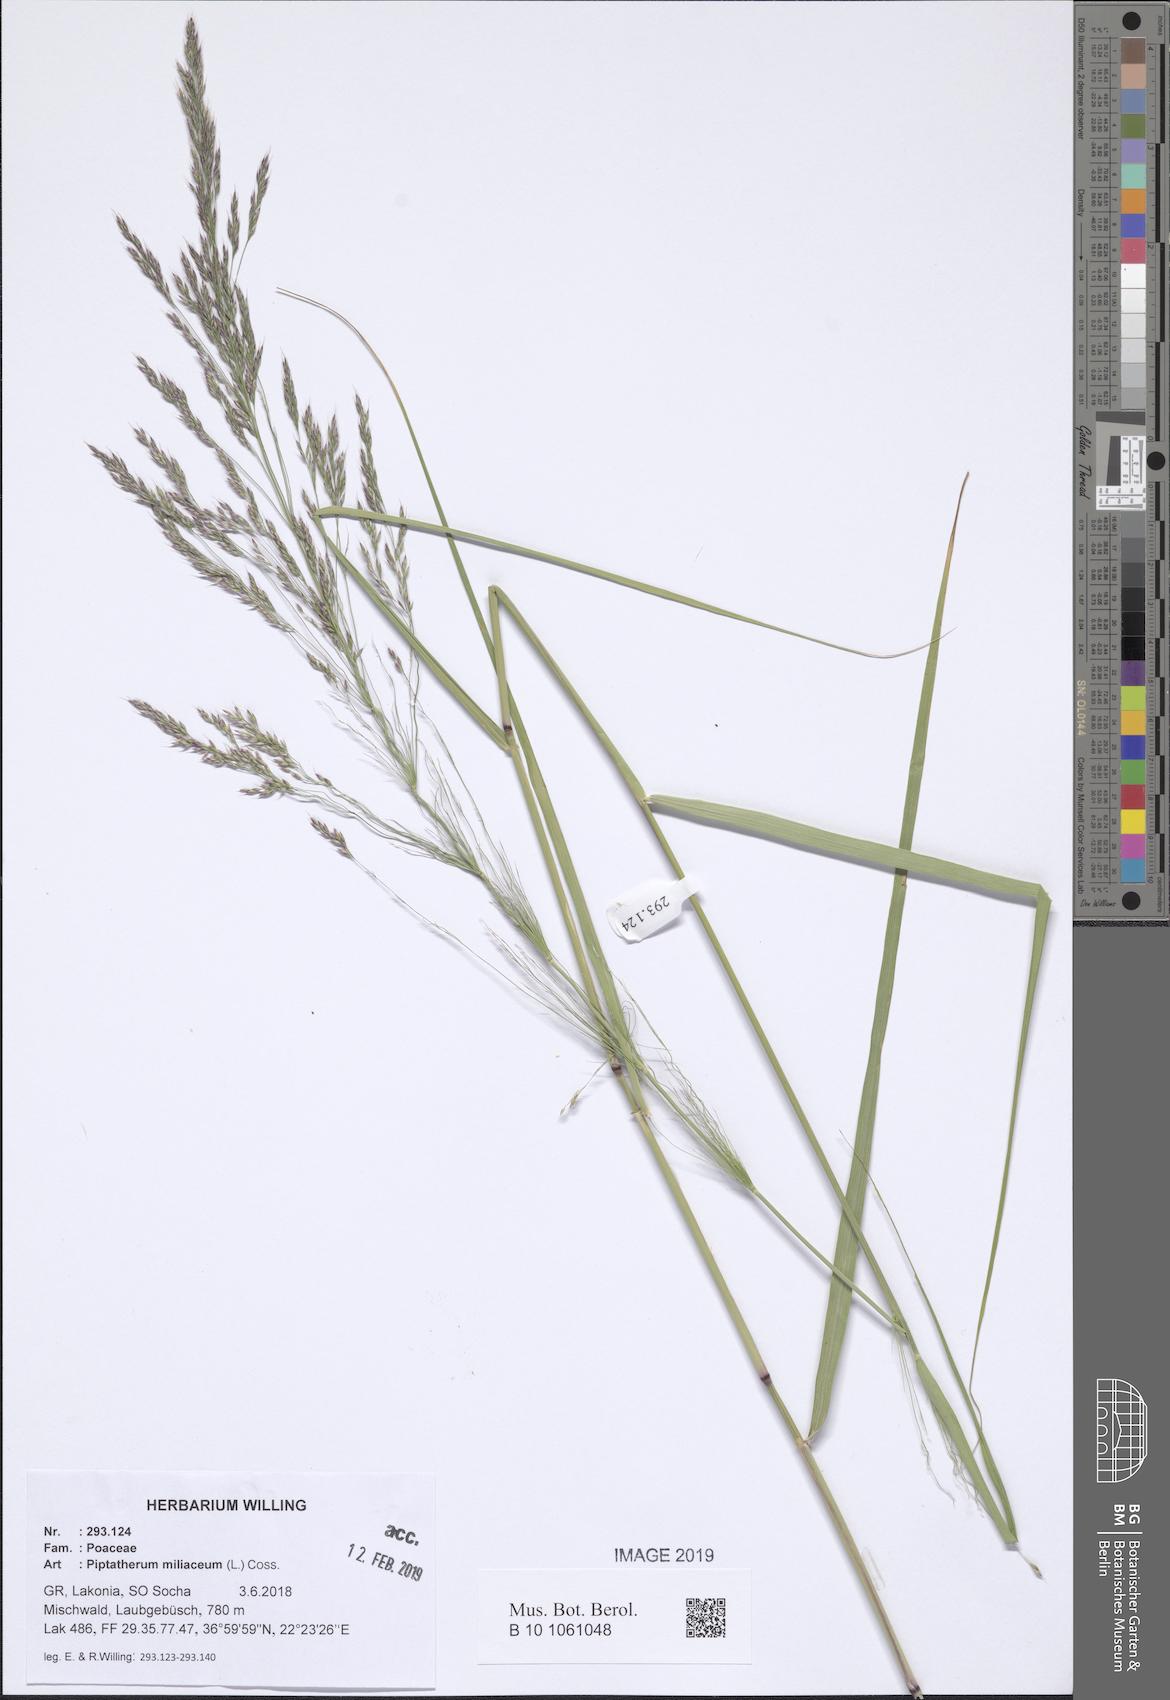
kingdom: Plantae
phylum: Tracheophyta
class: Liliopsida
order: Poales
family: Poaceae
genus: Oloptum
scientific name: Oloptum miliaceum
